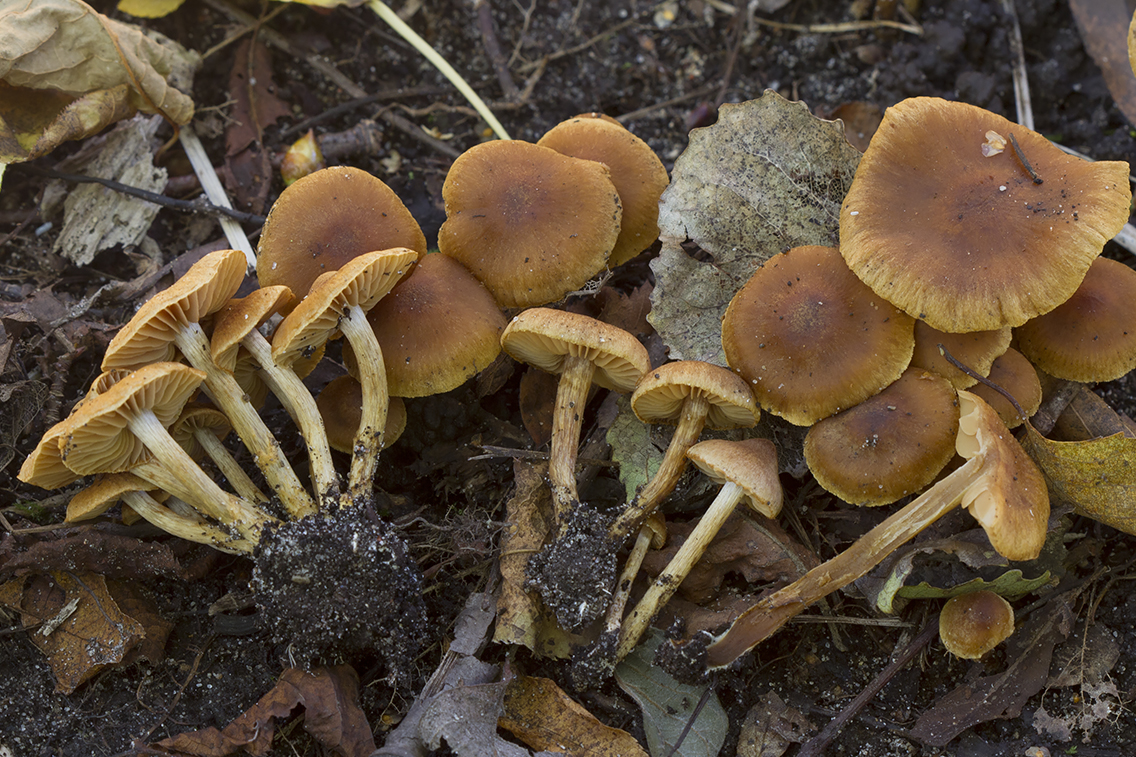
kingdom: Fungi
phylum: Basidiomycota
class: Agaricomycetes
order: Agaricales
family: Cortinariaceae
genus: Cortinarius
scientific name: Cortinarius paludosaniosus
